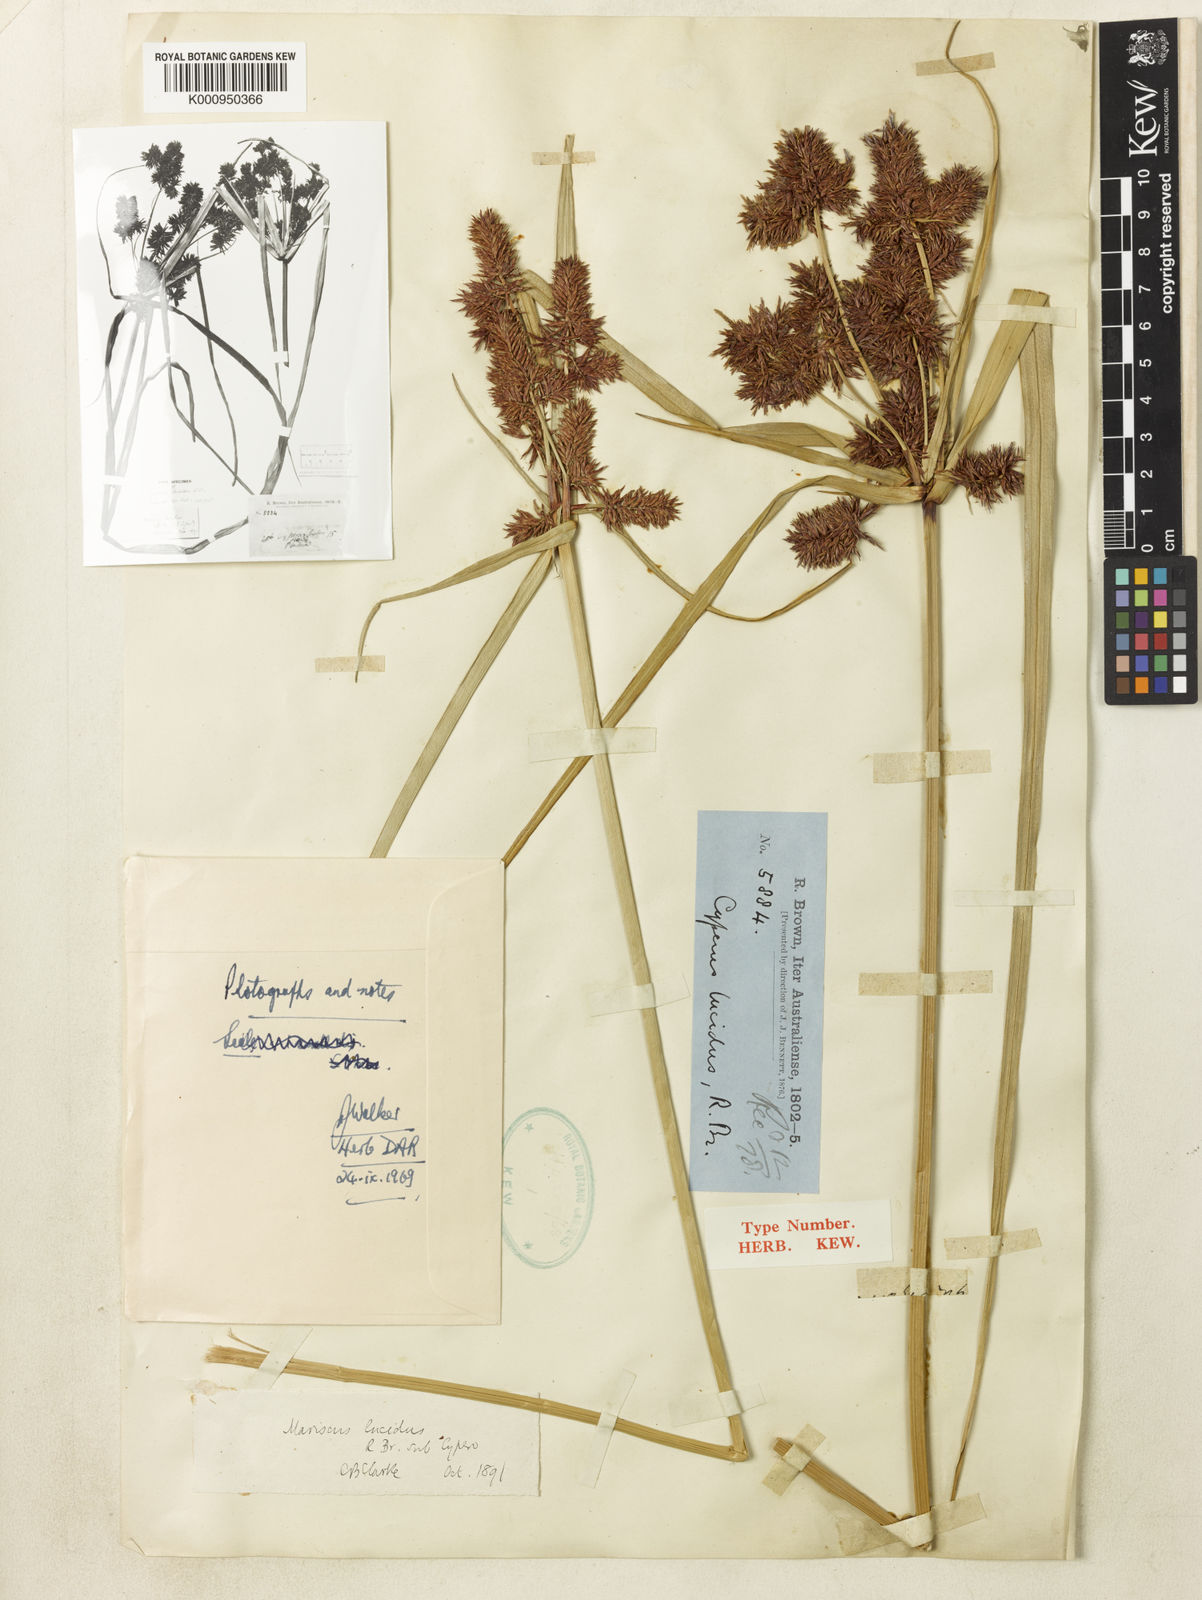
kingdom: Plantae
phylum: Tracheophyta
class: Liliopsida
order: Poales
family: Cyperaceae
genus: Cyperus
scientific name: Cyperus lucidus
